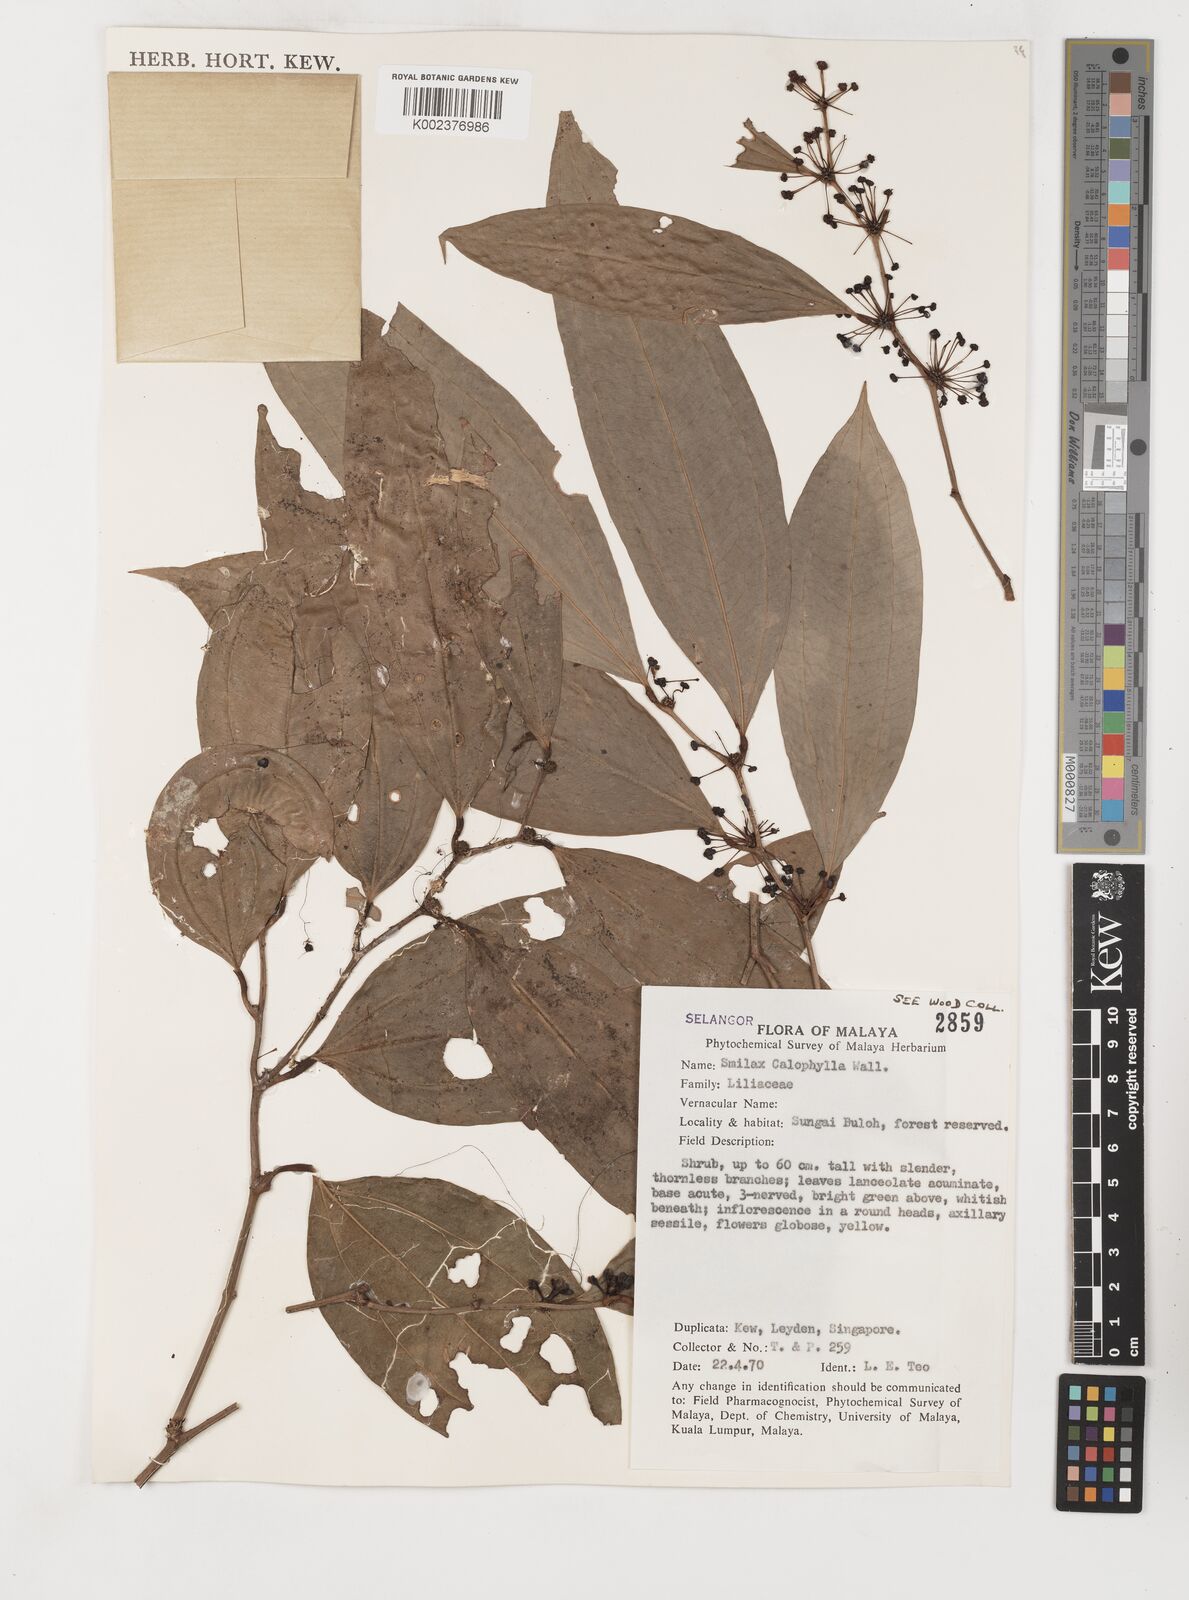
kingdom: Plantae
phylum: Tracheophyta
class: Liliopsida
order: Liliales
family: Smilacaceae
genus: Smilax
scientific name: Smilax calophylla
